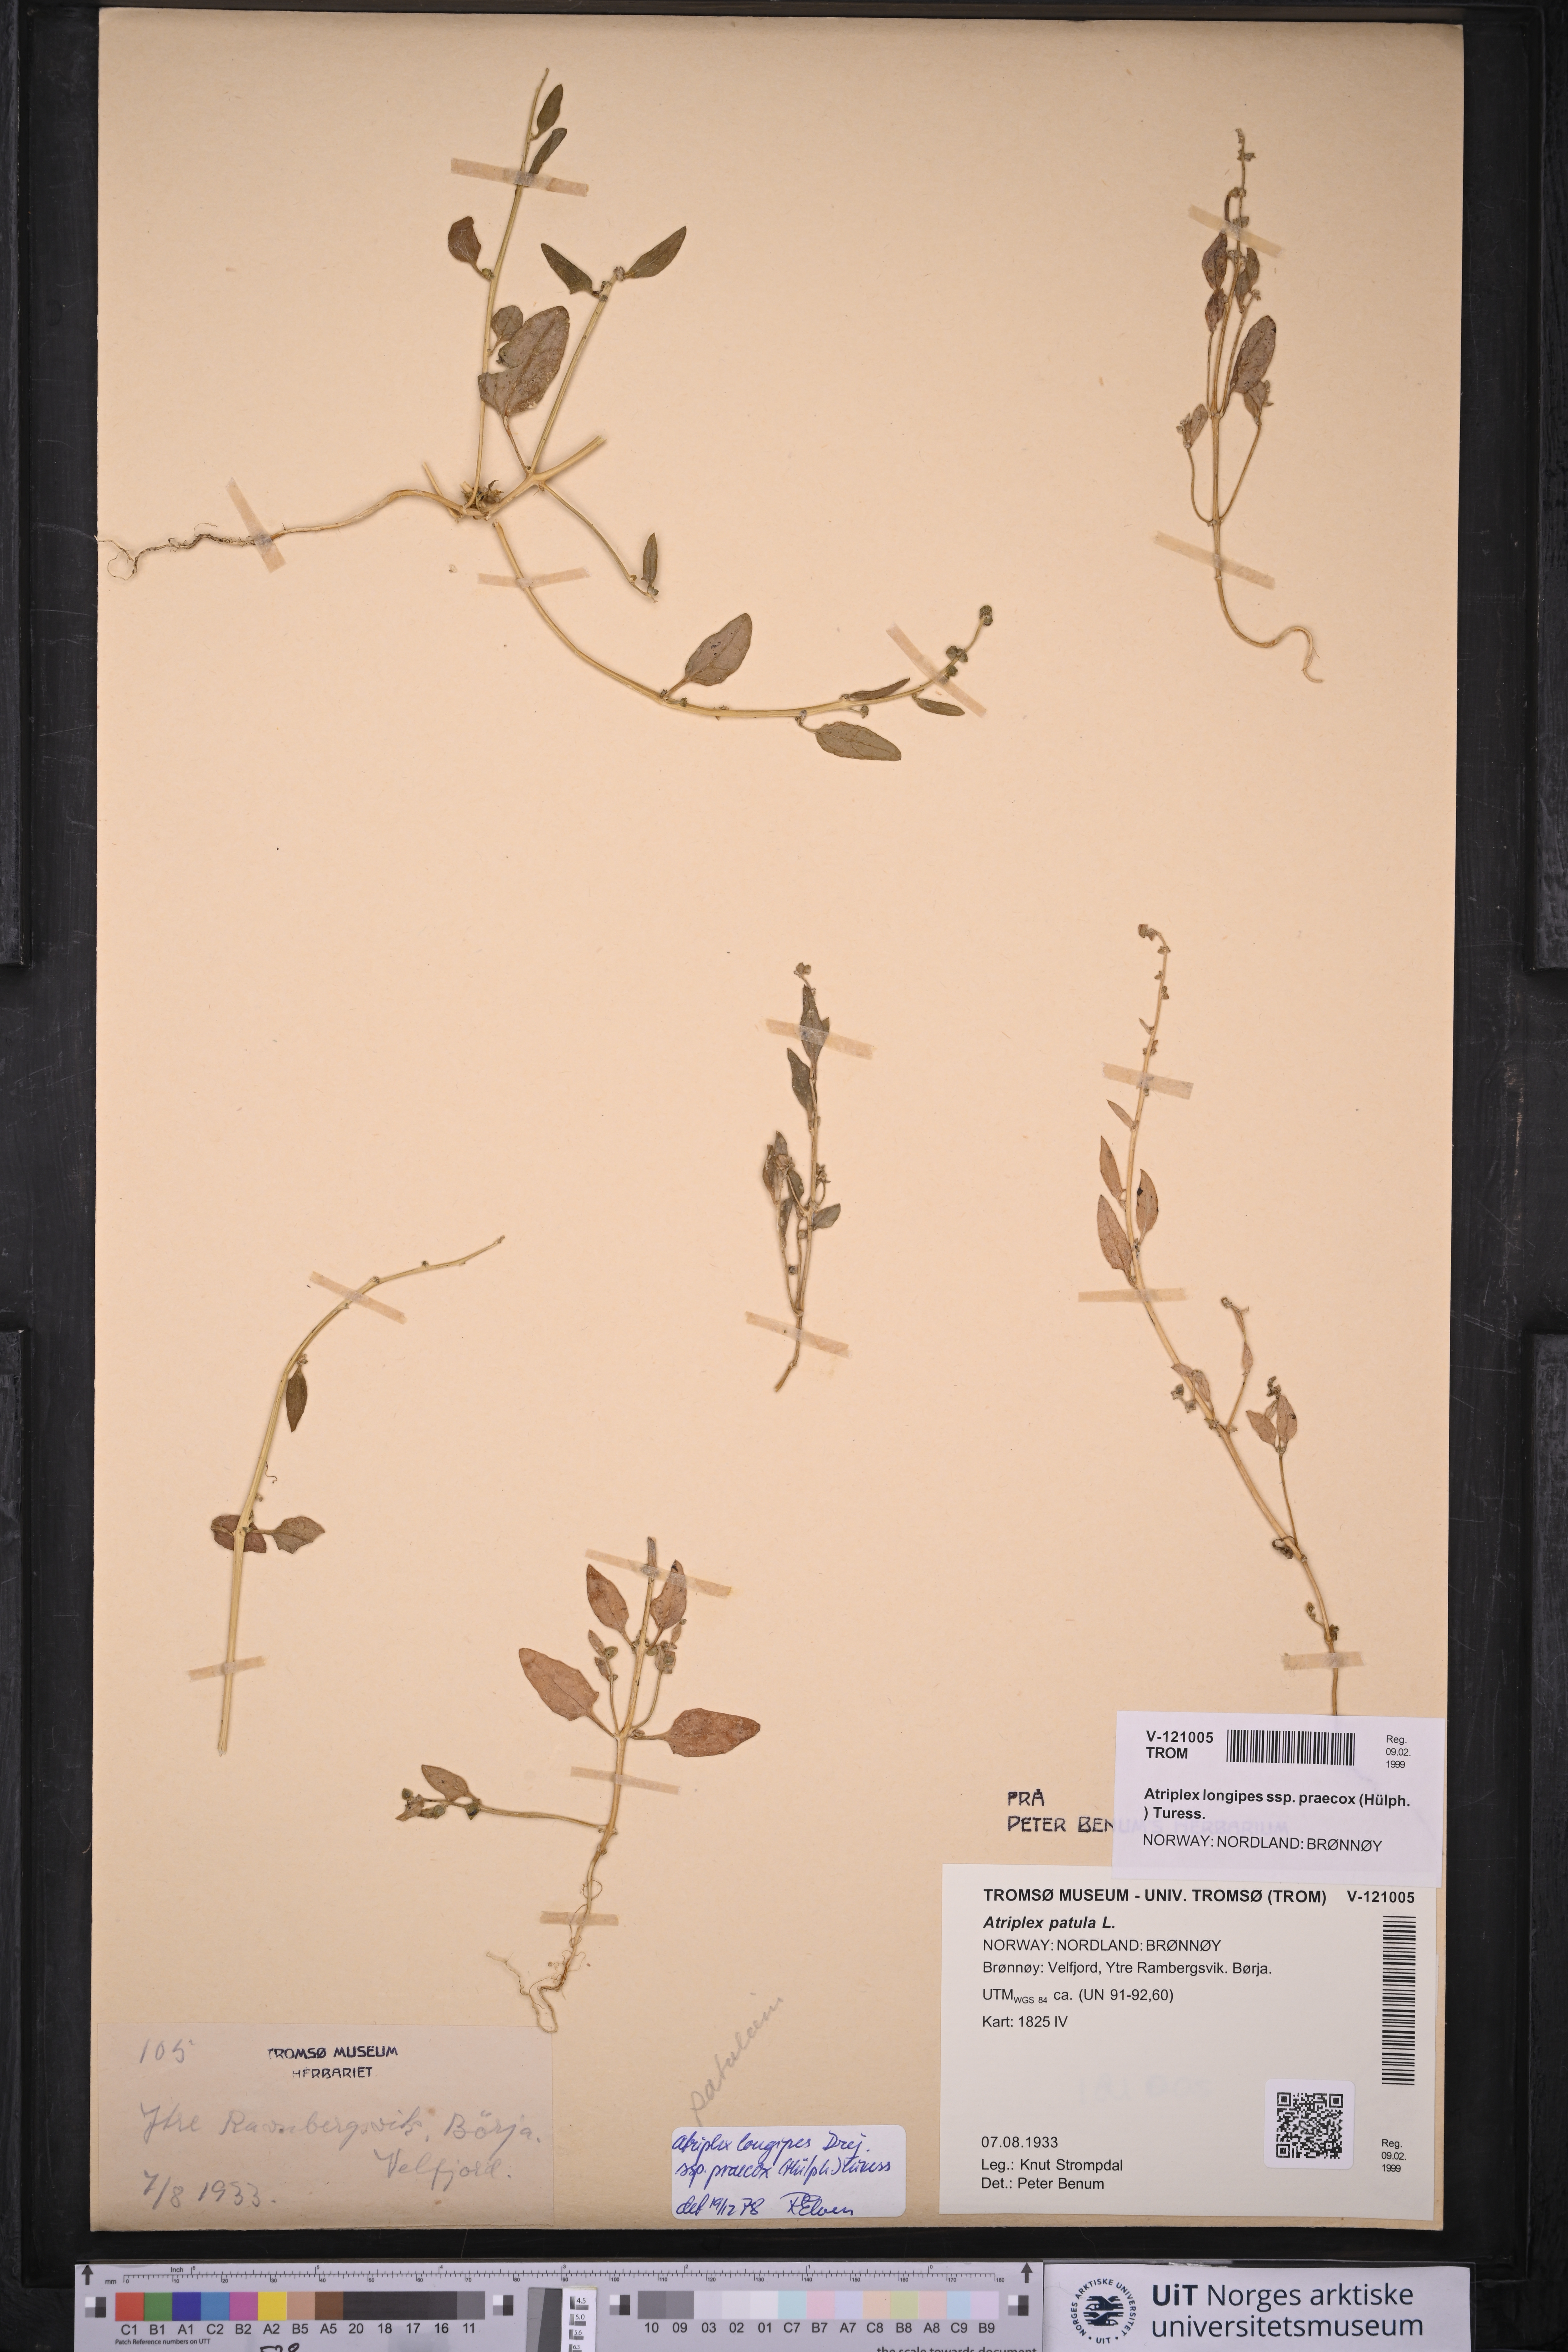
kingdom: Plantae
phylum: Tracheophyta
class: Magnoliopsida
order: Caryophyllales
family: Amaranthaceae
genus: Atriplex
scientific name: Atriplex praecox
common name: Early orache
